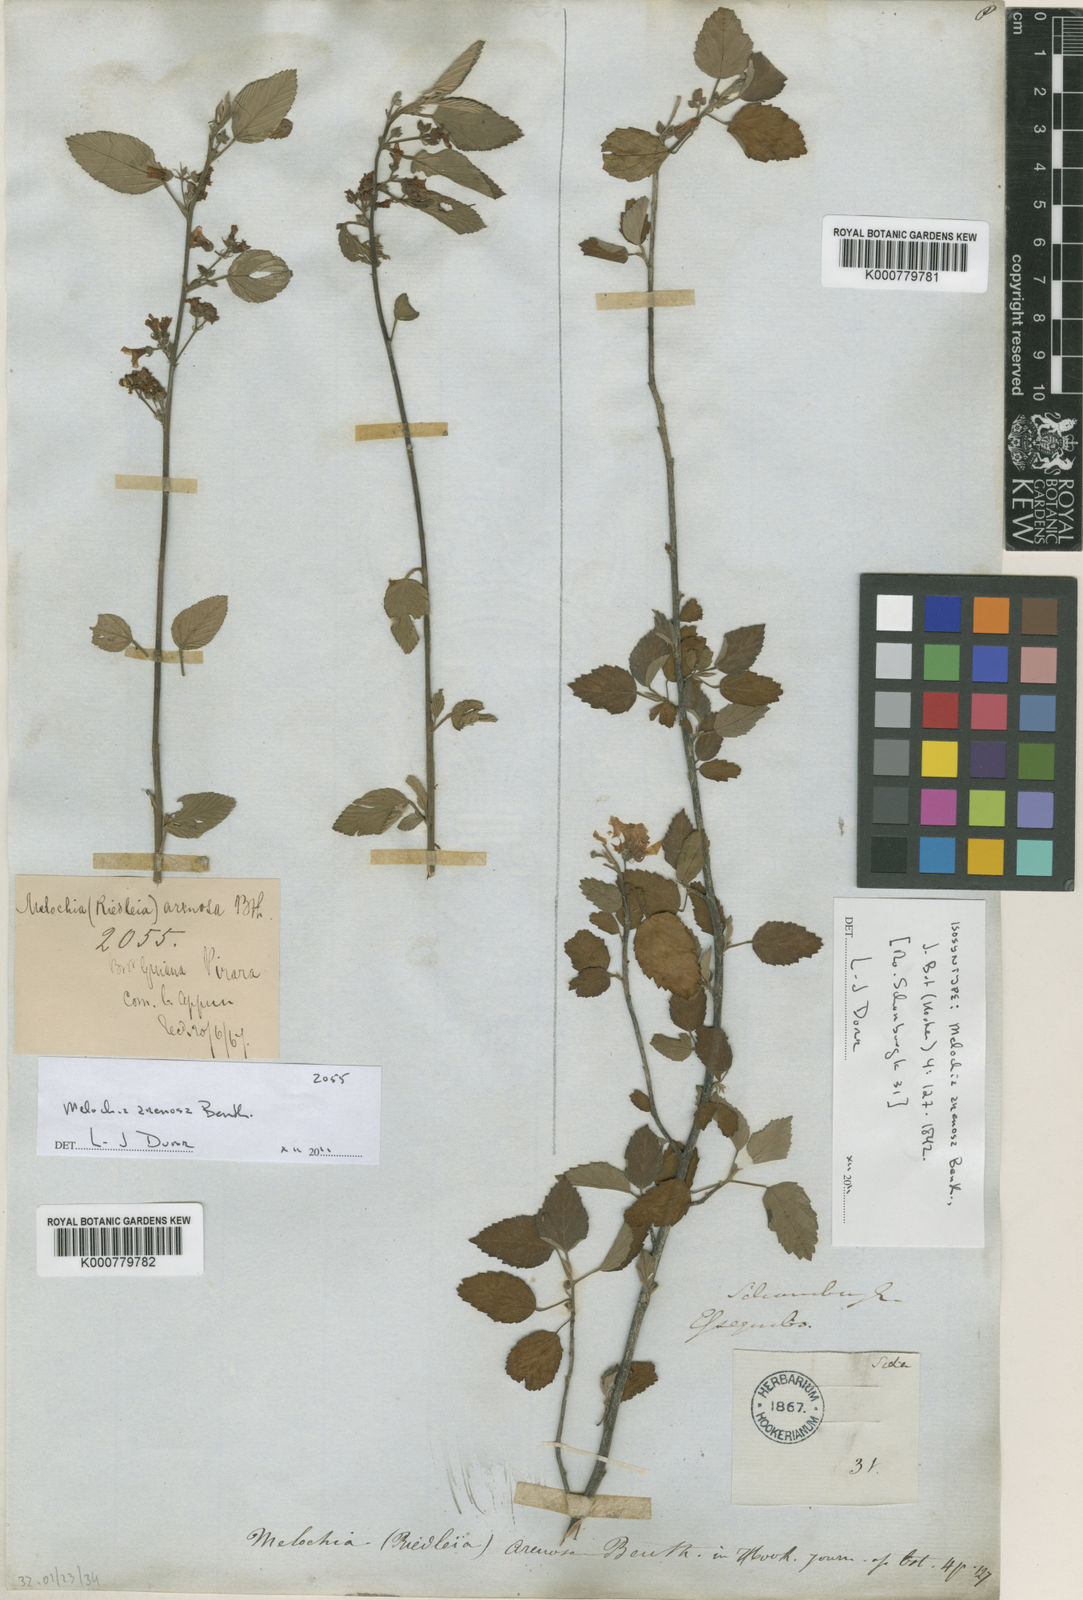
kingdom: Plantae
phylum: Tracheophyta
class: Magnoliopsida
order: Malvales
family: Malvaceae
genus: Melochia
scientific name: Melochia arenosa
